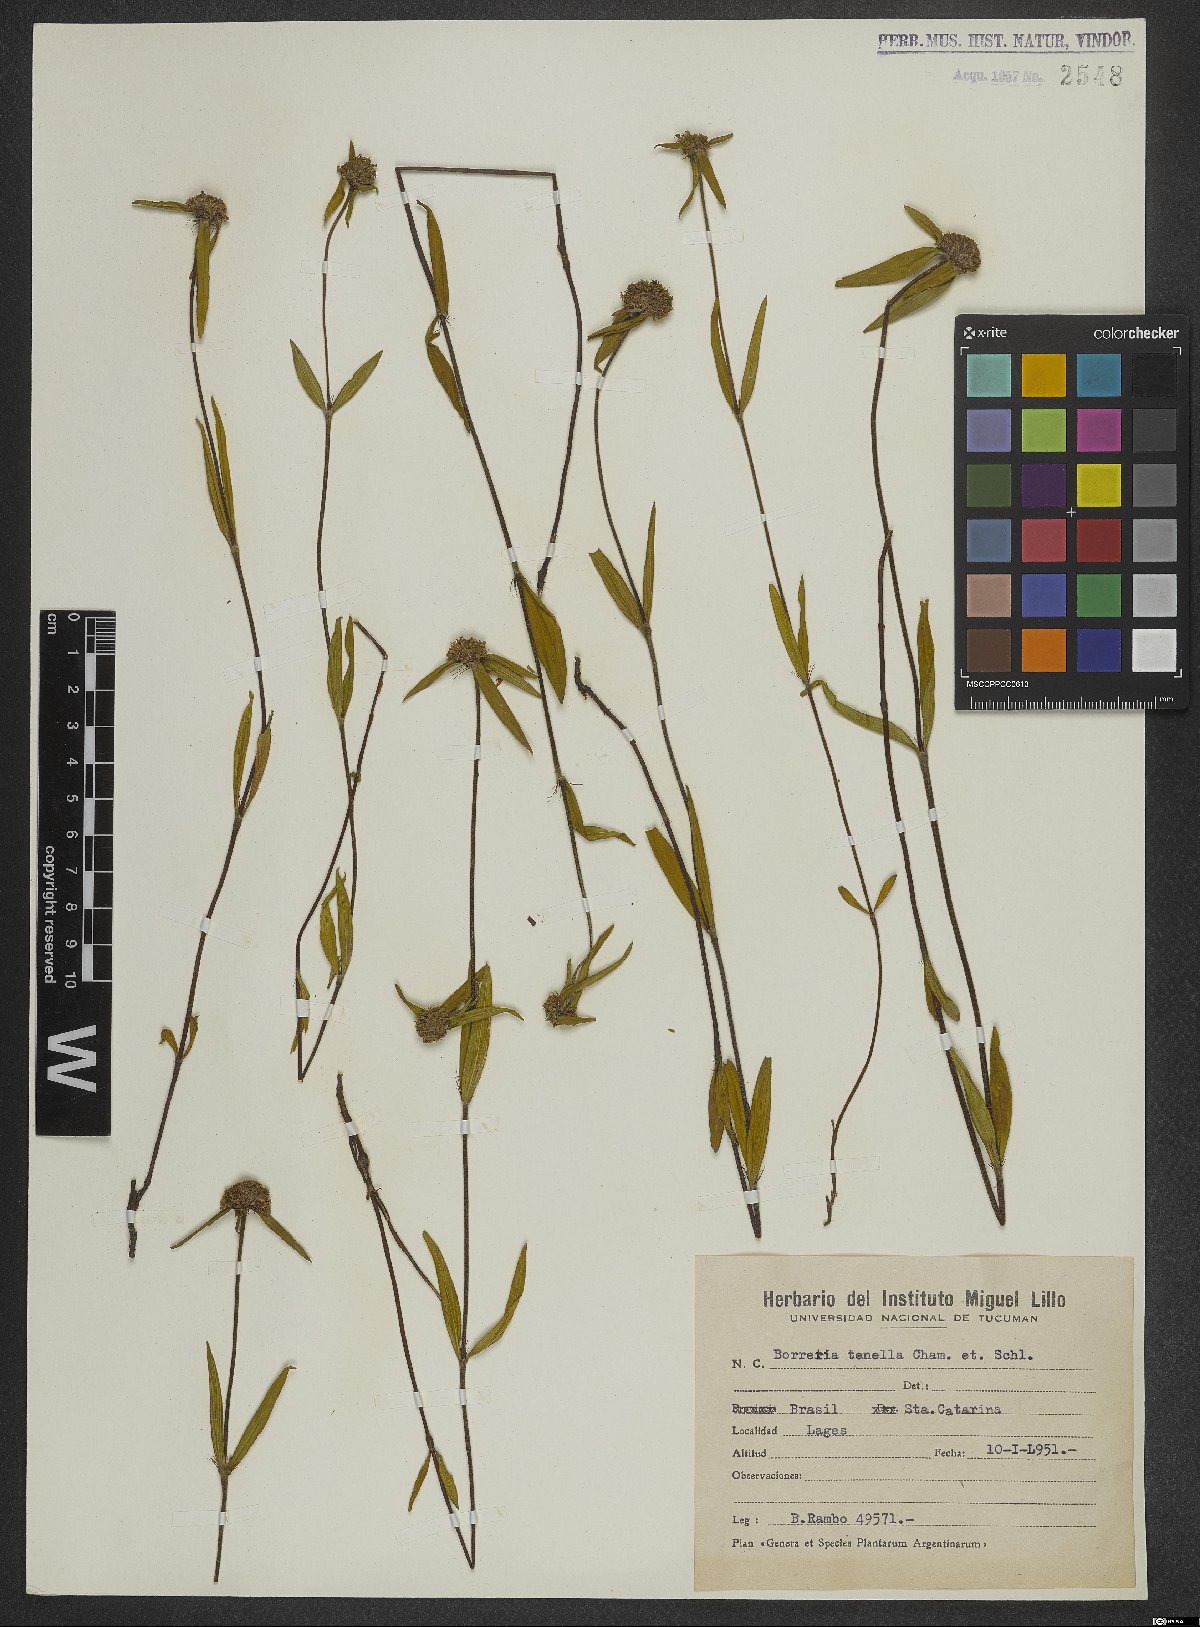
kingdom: Plantae
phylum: Tracheophyta
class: Magnoliopsida
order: Gentianales
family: Rubiaceae
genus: Spermacoce
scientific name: Spermacoce orinocensis
